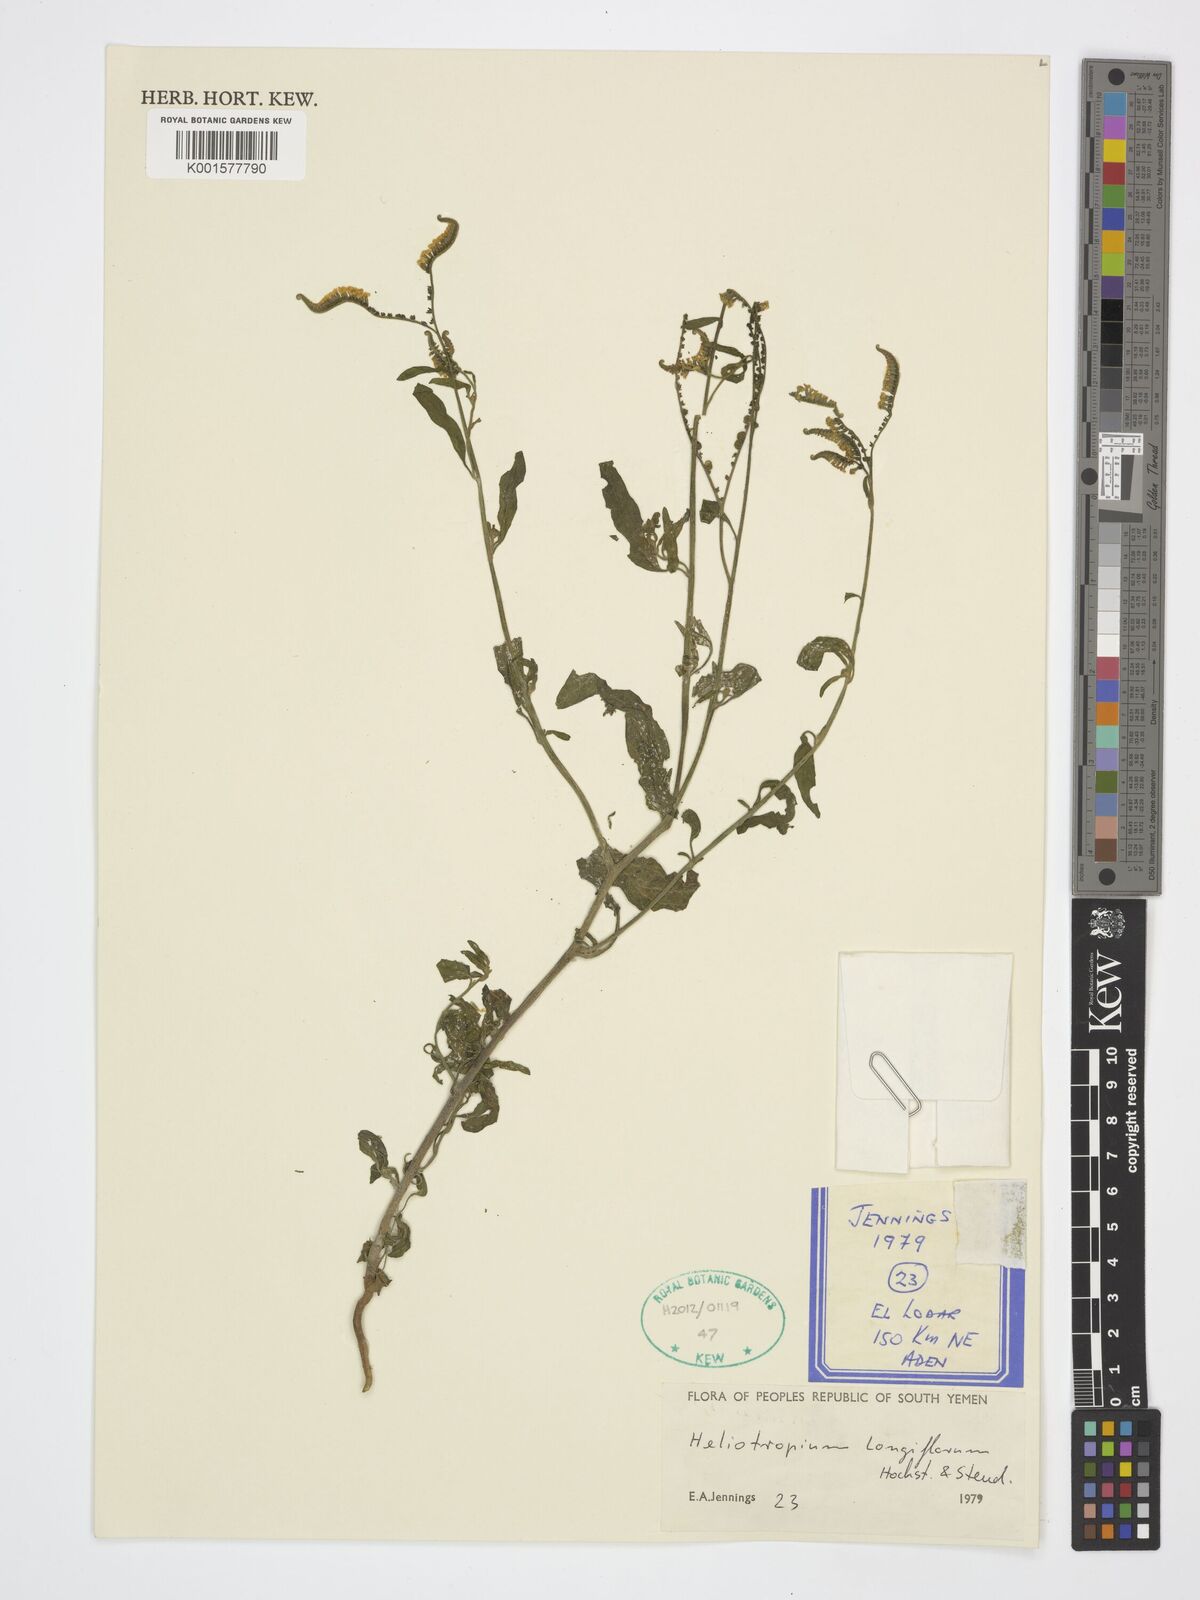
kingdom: Plantae
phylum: Tracheophyta
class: Magnoliopsida
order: Boraginales
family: Heliotropiaceae
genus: Heliotropium
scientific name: Heliotropium longiflorum
